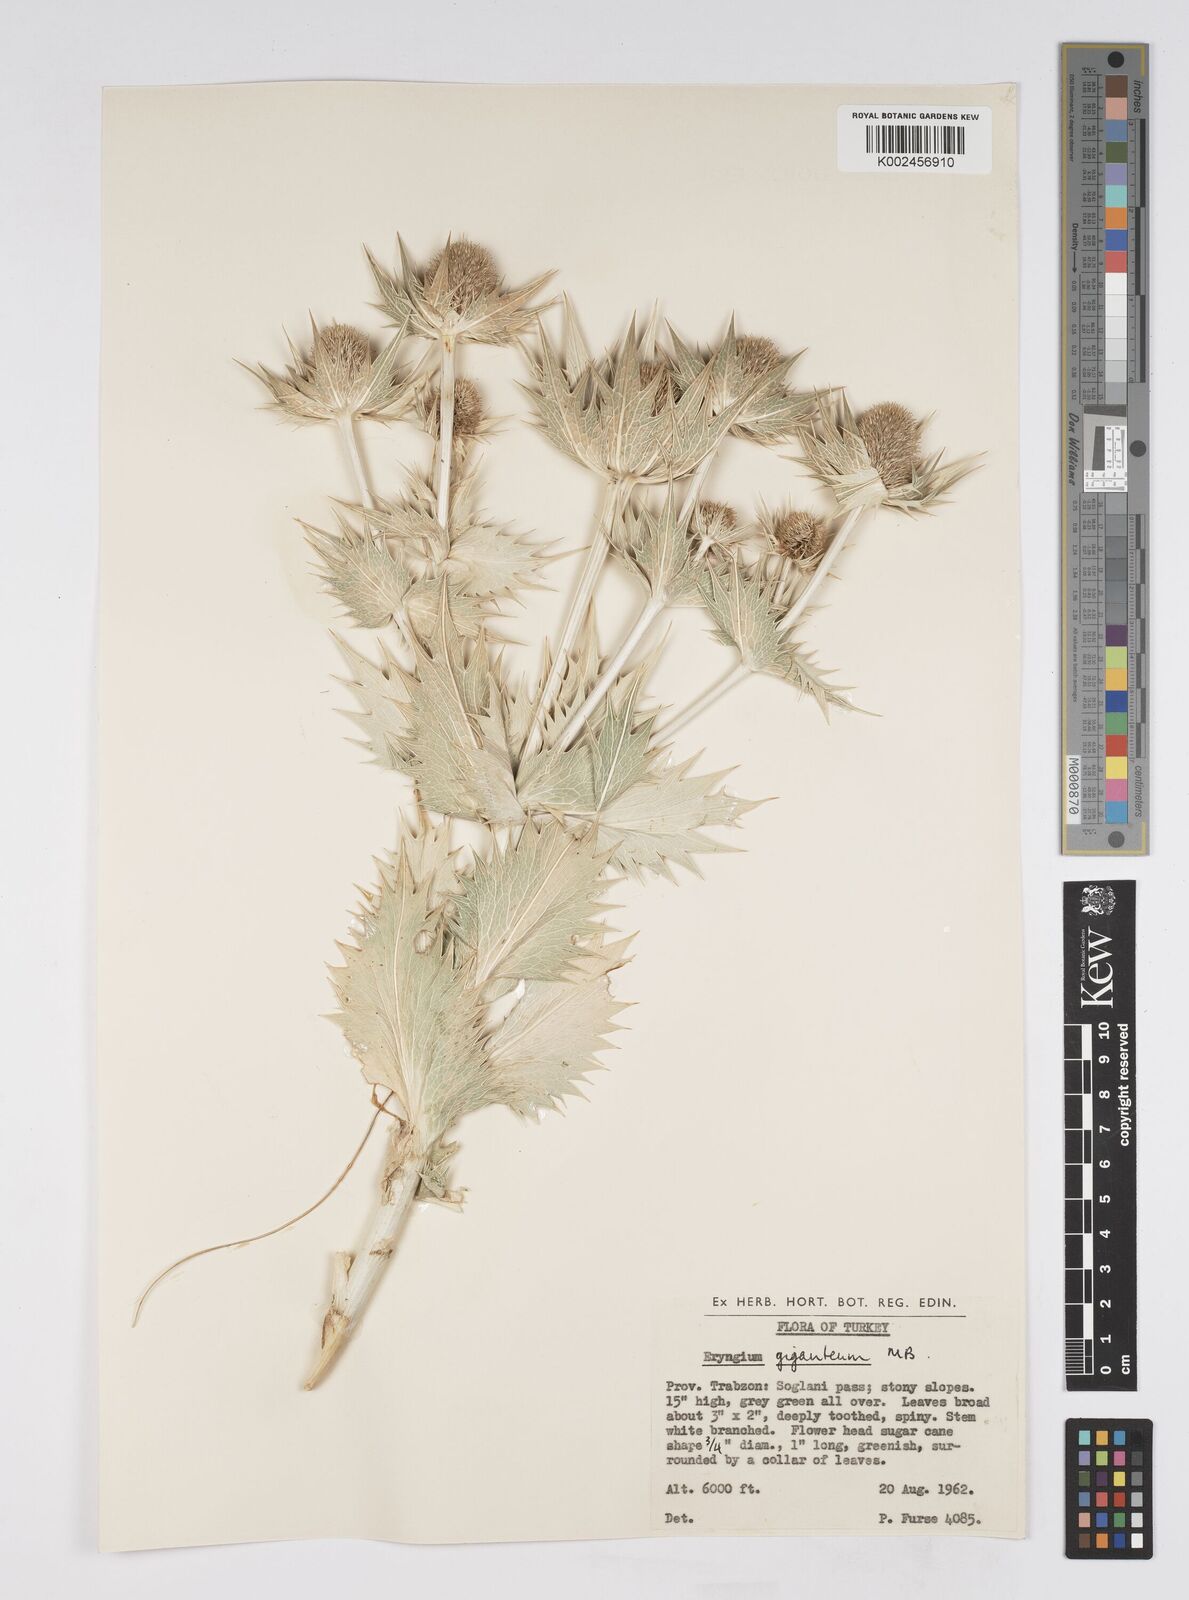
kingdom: Plantae
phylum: Tracheophyta
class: Magnoliopsida
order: Apiales
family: Apiaceae
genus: Eryngium
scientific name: Eryngium giganteum
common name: Tall eryngo
